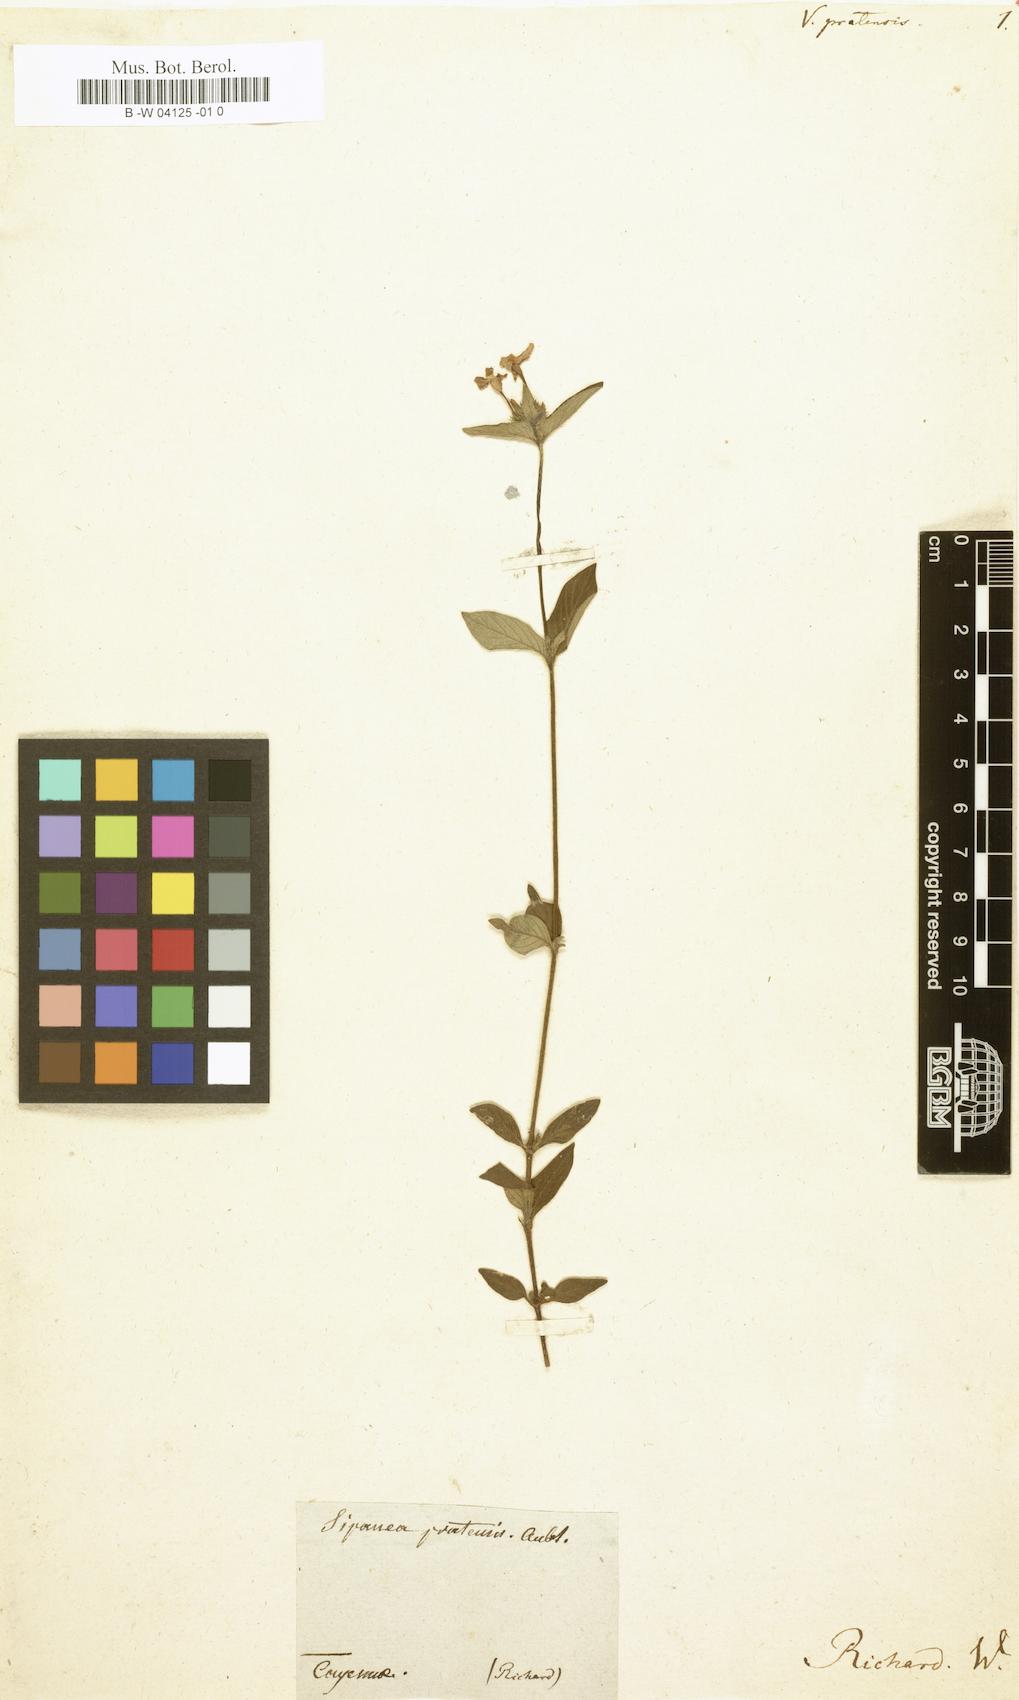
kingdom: Plantae
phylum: Tracheophyta
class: Magnoliopsida
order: Gentianales
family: Rubiaceae
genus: Sipanea
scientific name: Sipanea pratensis
